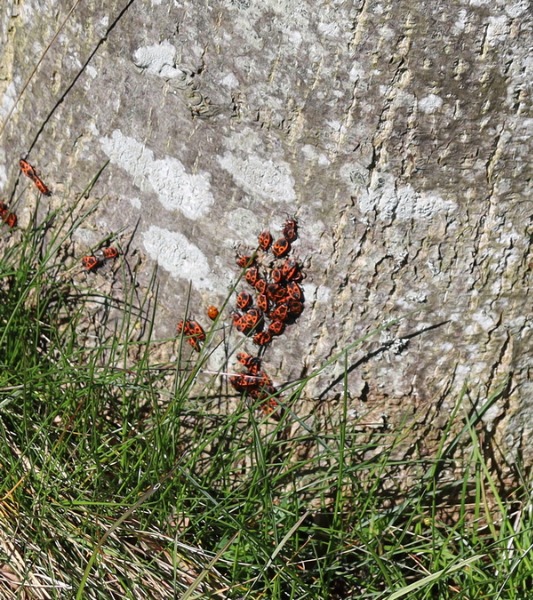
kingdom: Animalia
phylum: Arthropoda
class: Insecta
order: Hemiptera
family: Pyrrhocoridae
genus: Pyrrhocoris
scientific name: Pyrrhocoris apterus
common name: Ildtæge
